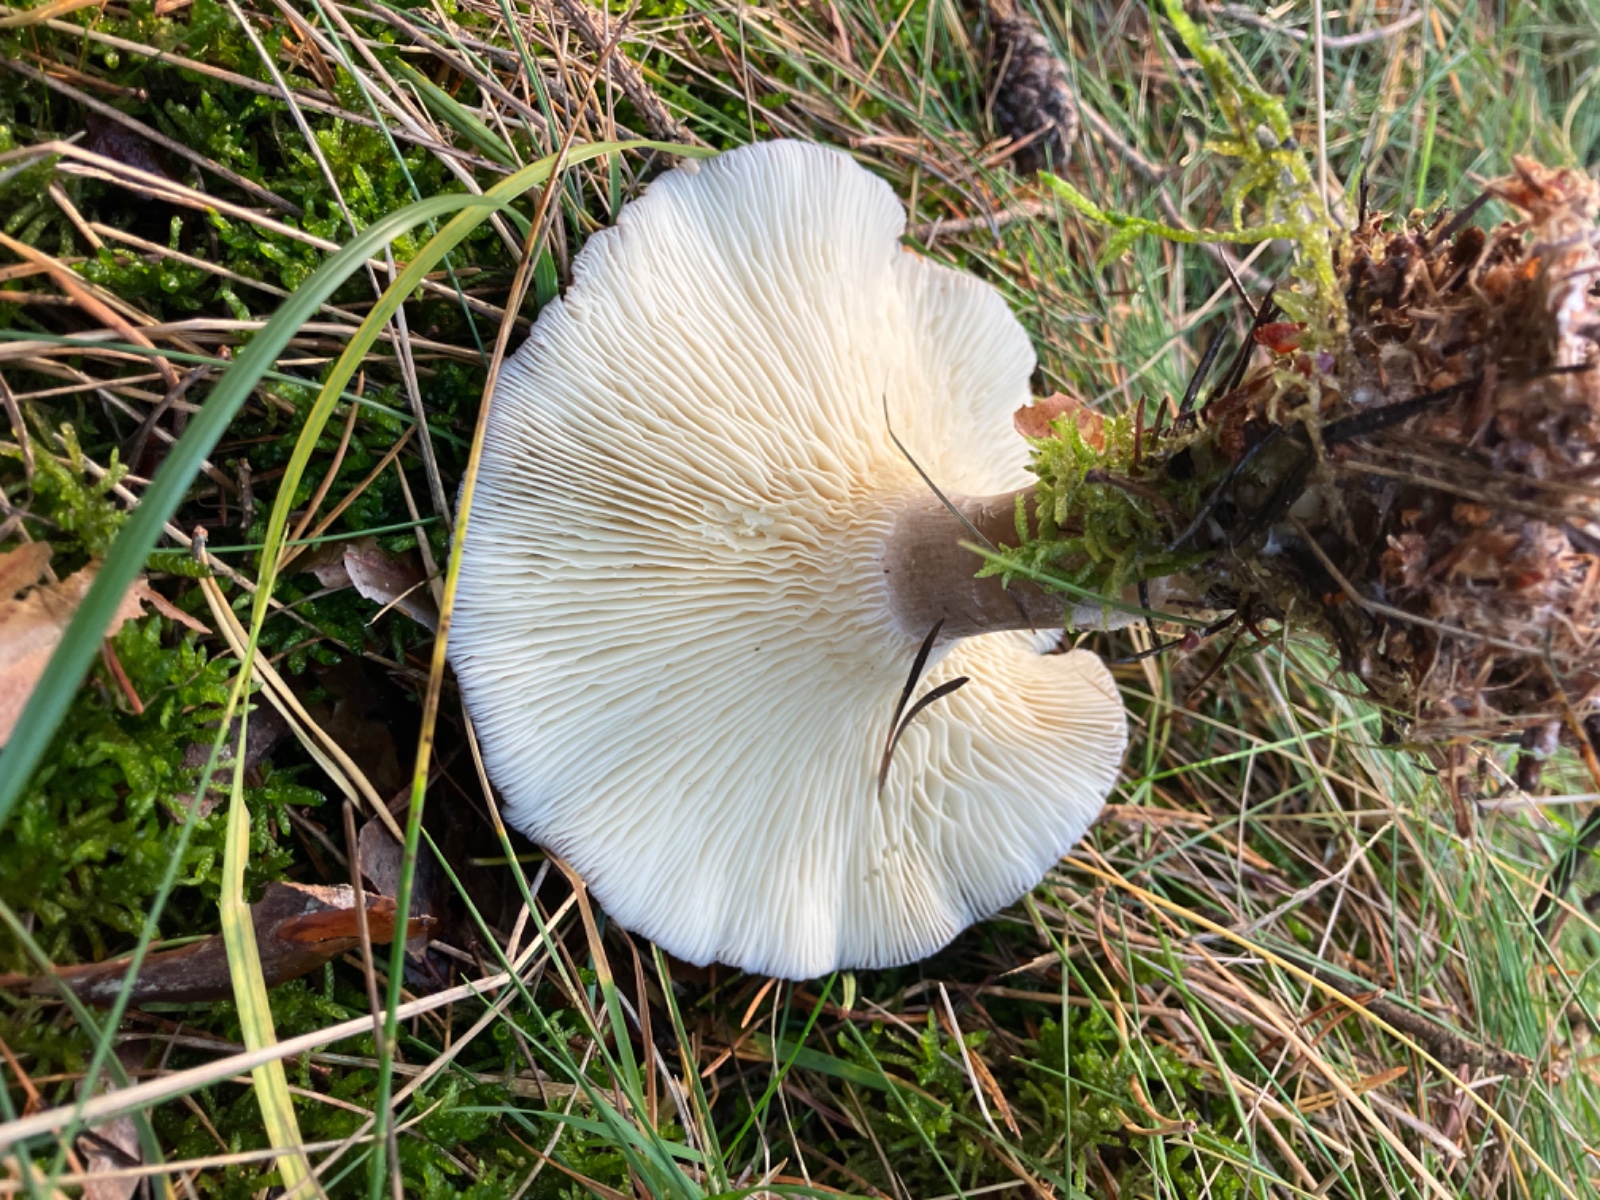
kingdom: Fungi
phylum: Basidiomycota
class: Agaricomycetes
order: Agaricales
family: Hygrophoraceae
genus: Ampulloclitocybe
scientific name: Ampulloclitocybe clavipes
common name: køllefod
